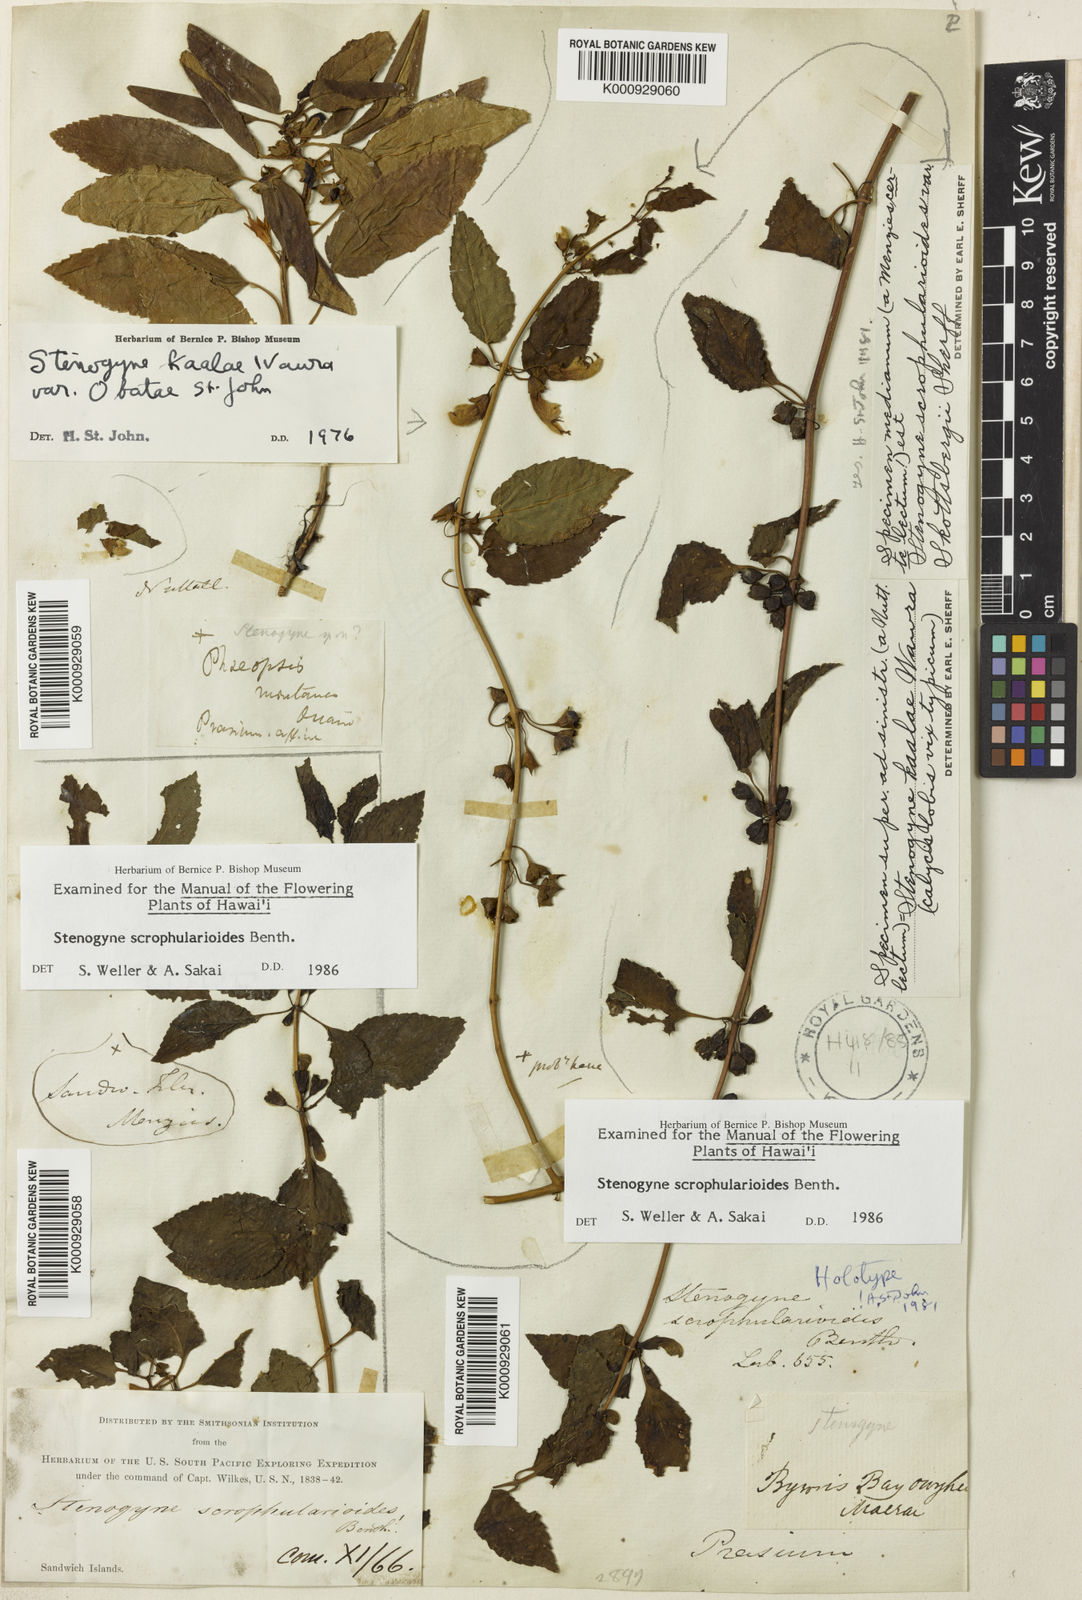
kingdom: Plantae
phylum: Tracheophyta
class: Magnoliopsida
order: Lamiales
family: Lamiaceae
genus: Stenogyne
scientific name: Stenogyne scrophularioides
